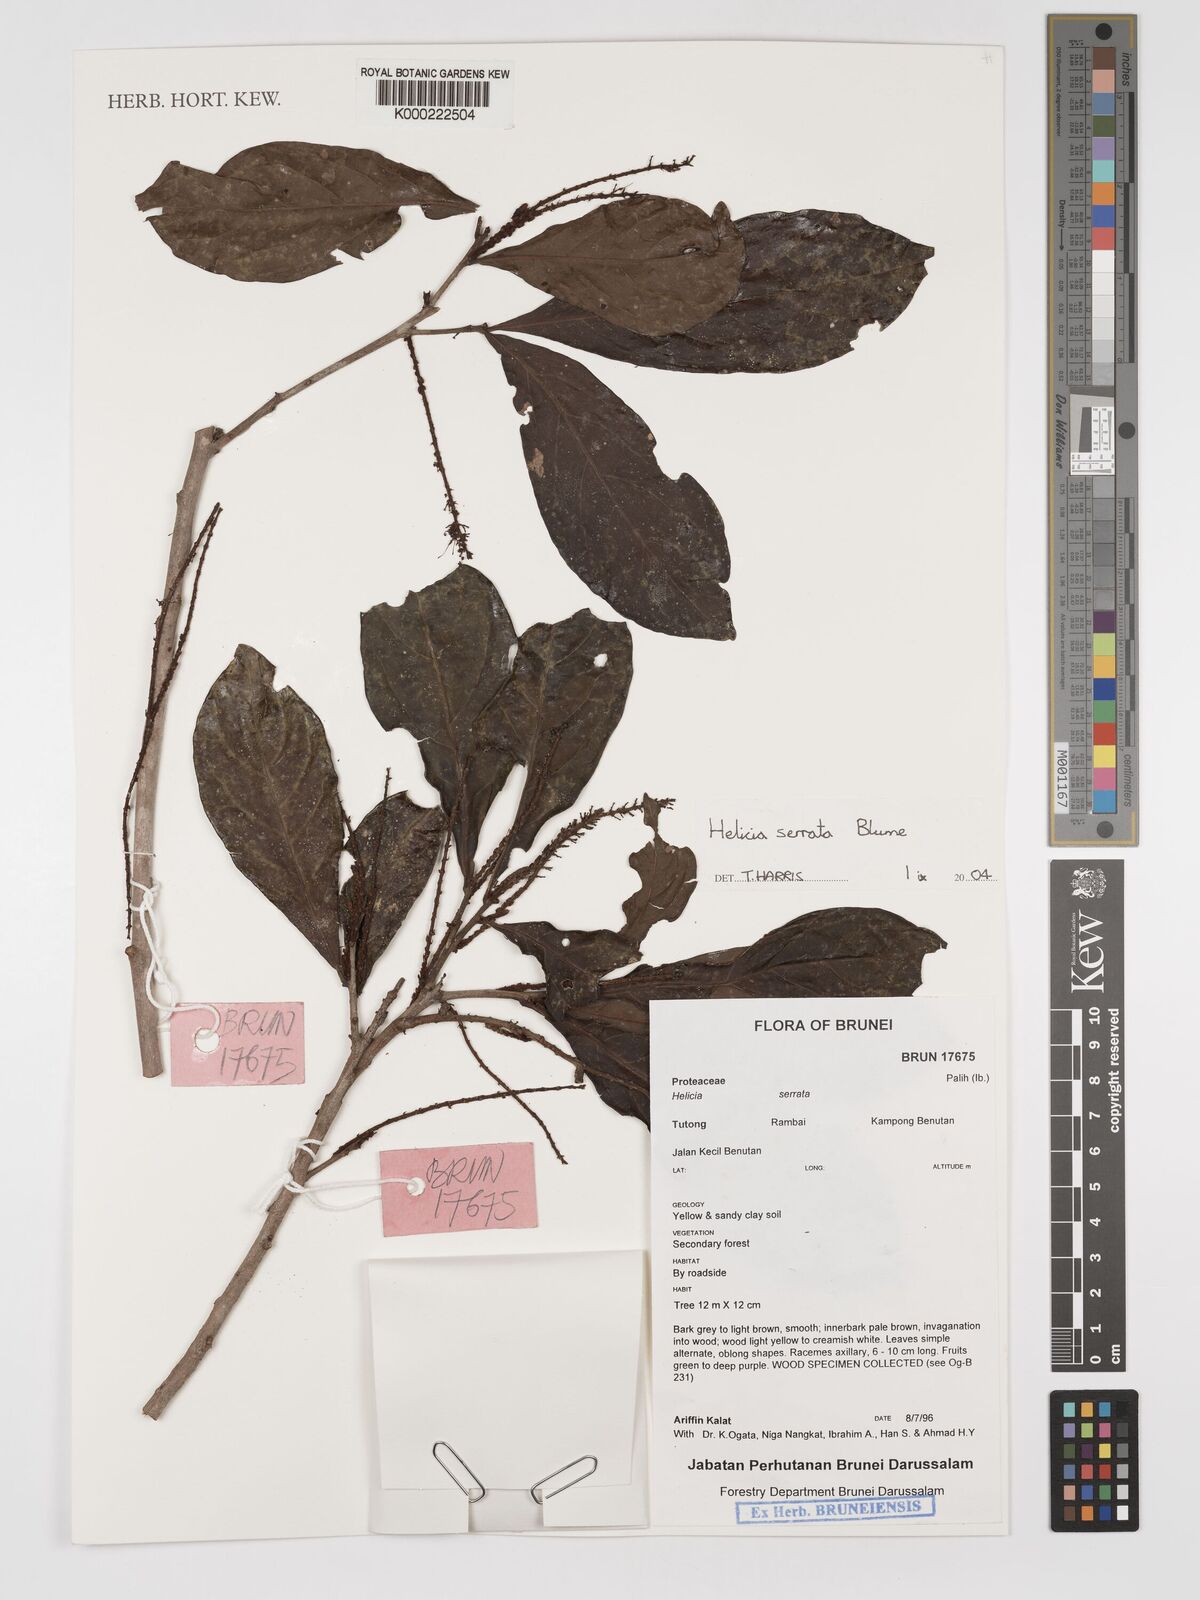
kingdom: Plantae
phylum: Tracheophyta
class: Magnoliopsida
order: Proteales
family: Proteaceae
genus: Helicia
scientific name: Helicia serrata
